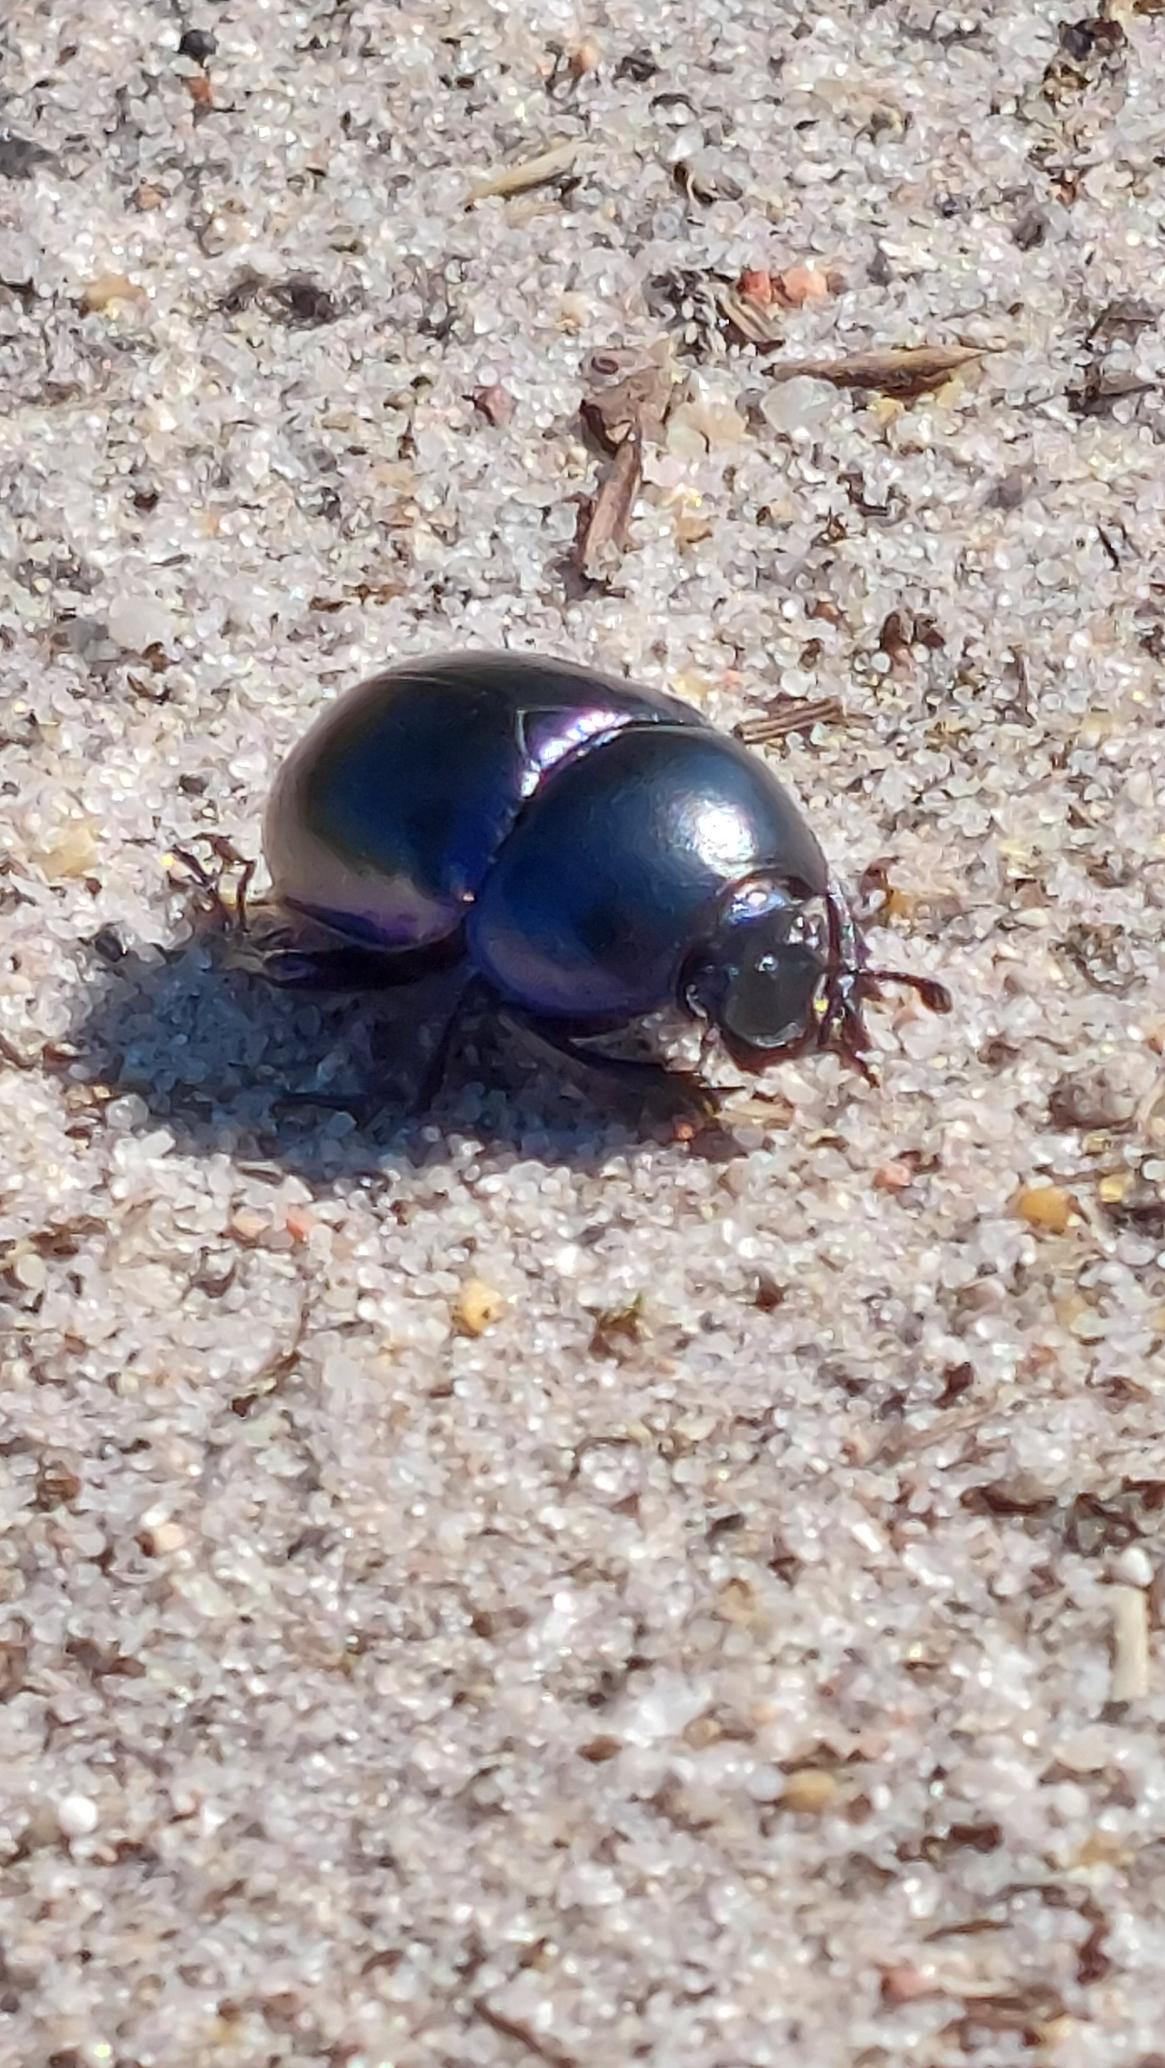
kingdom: Animalia
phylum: Arthropoda
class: Insecta
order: Coleoptera
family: Geotrupidae
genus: Trypocopris
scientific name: Trypocopris vernalis
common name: Glat skarnbasse
